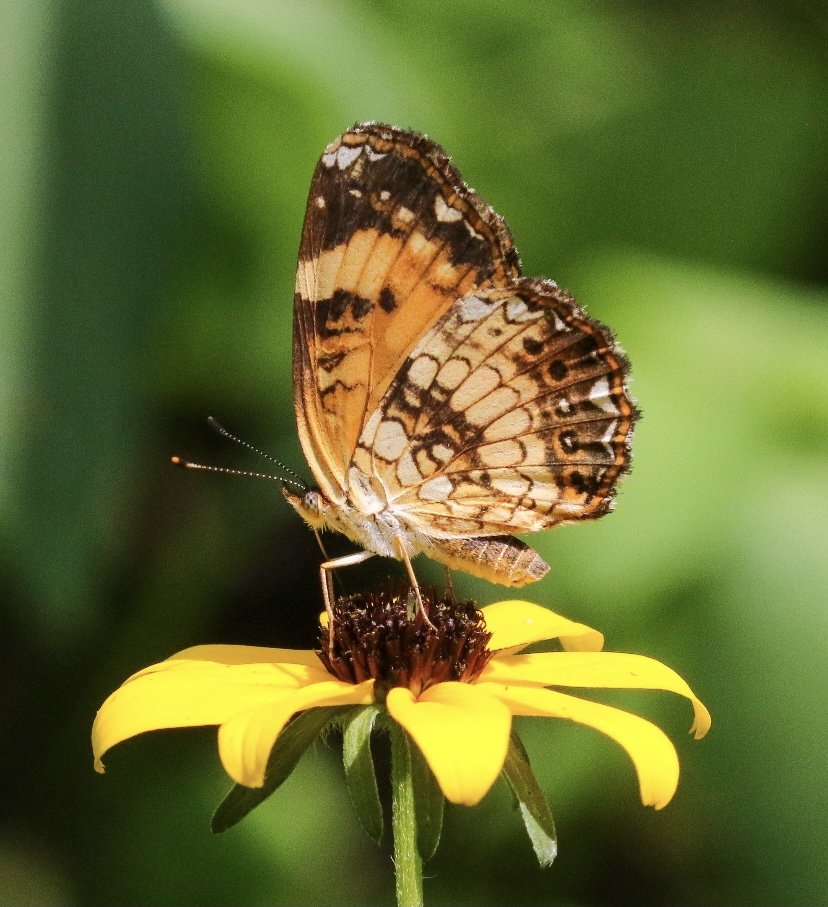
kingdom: Animalia
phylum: Arthropoda
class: Insecta
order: Lepidoptera
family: Nymphalidae
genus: Chlosyne
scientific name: Chlosyne nycteis
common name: Silvery Checkerspot
